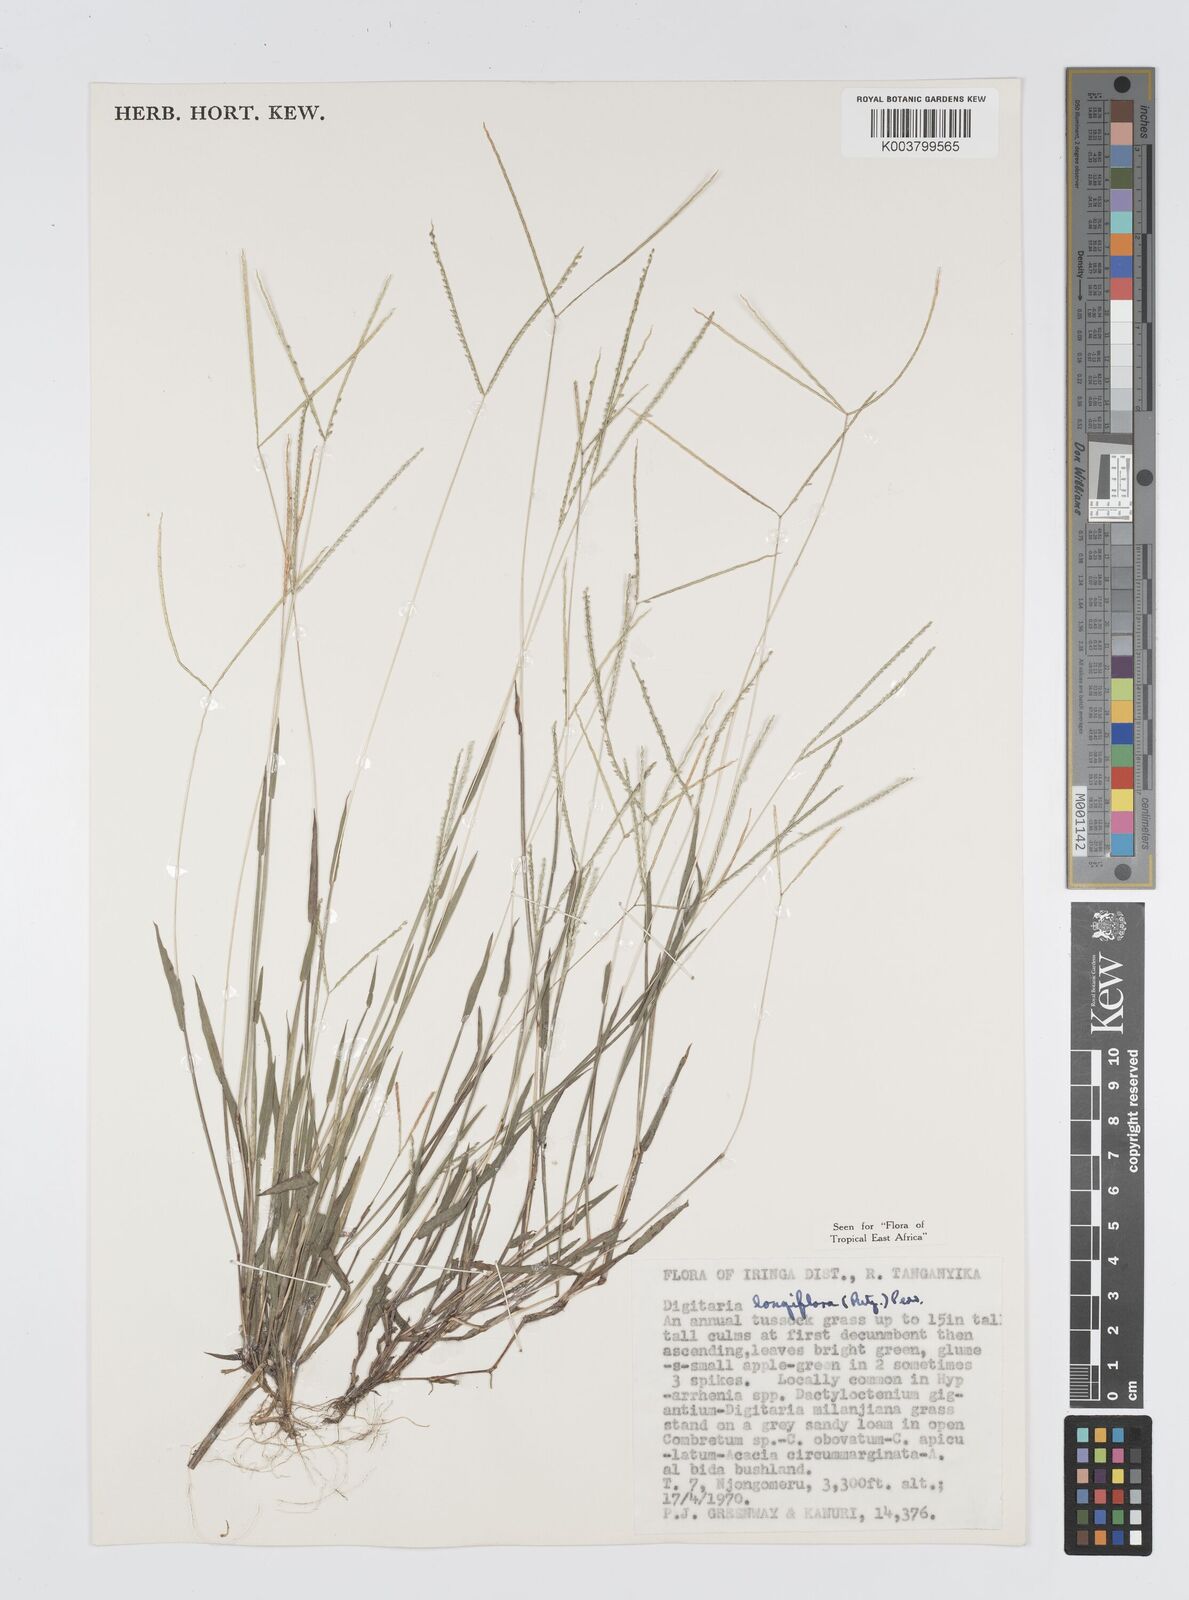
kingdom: Plantae
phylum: Tracheophyta
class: Liliopsida
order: Poales
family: Poaceae
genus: Digitaria
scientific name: Digitaria longiflora
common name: Wire crabgrass
